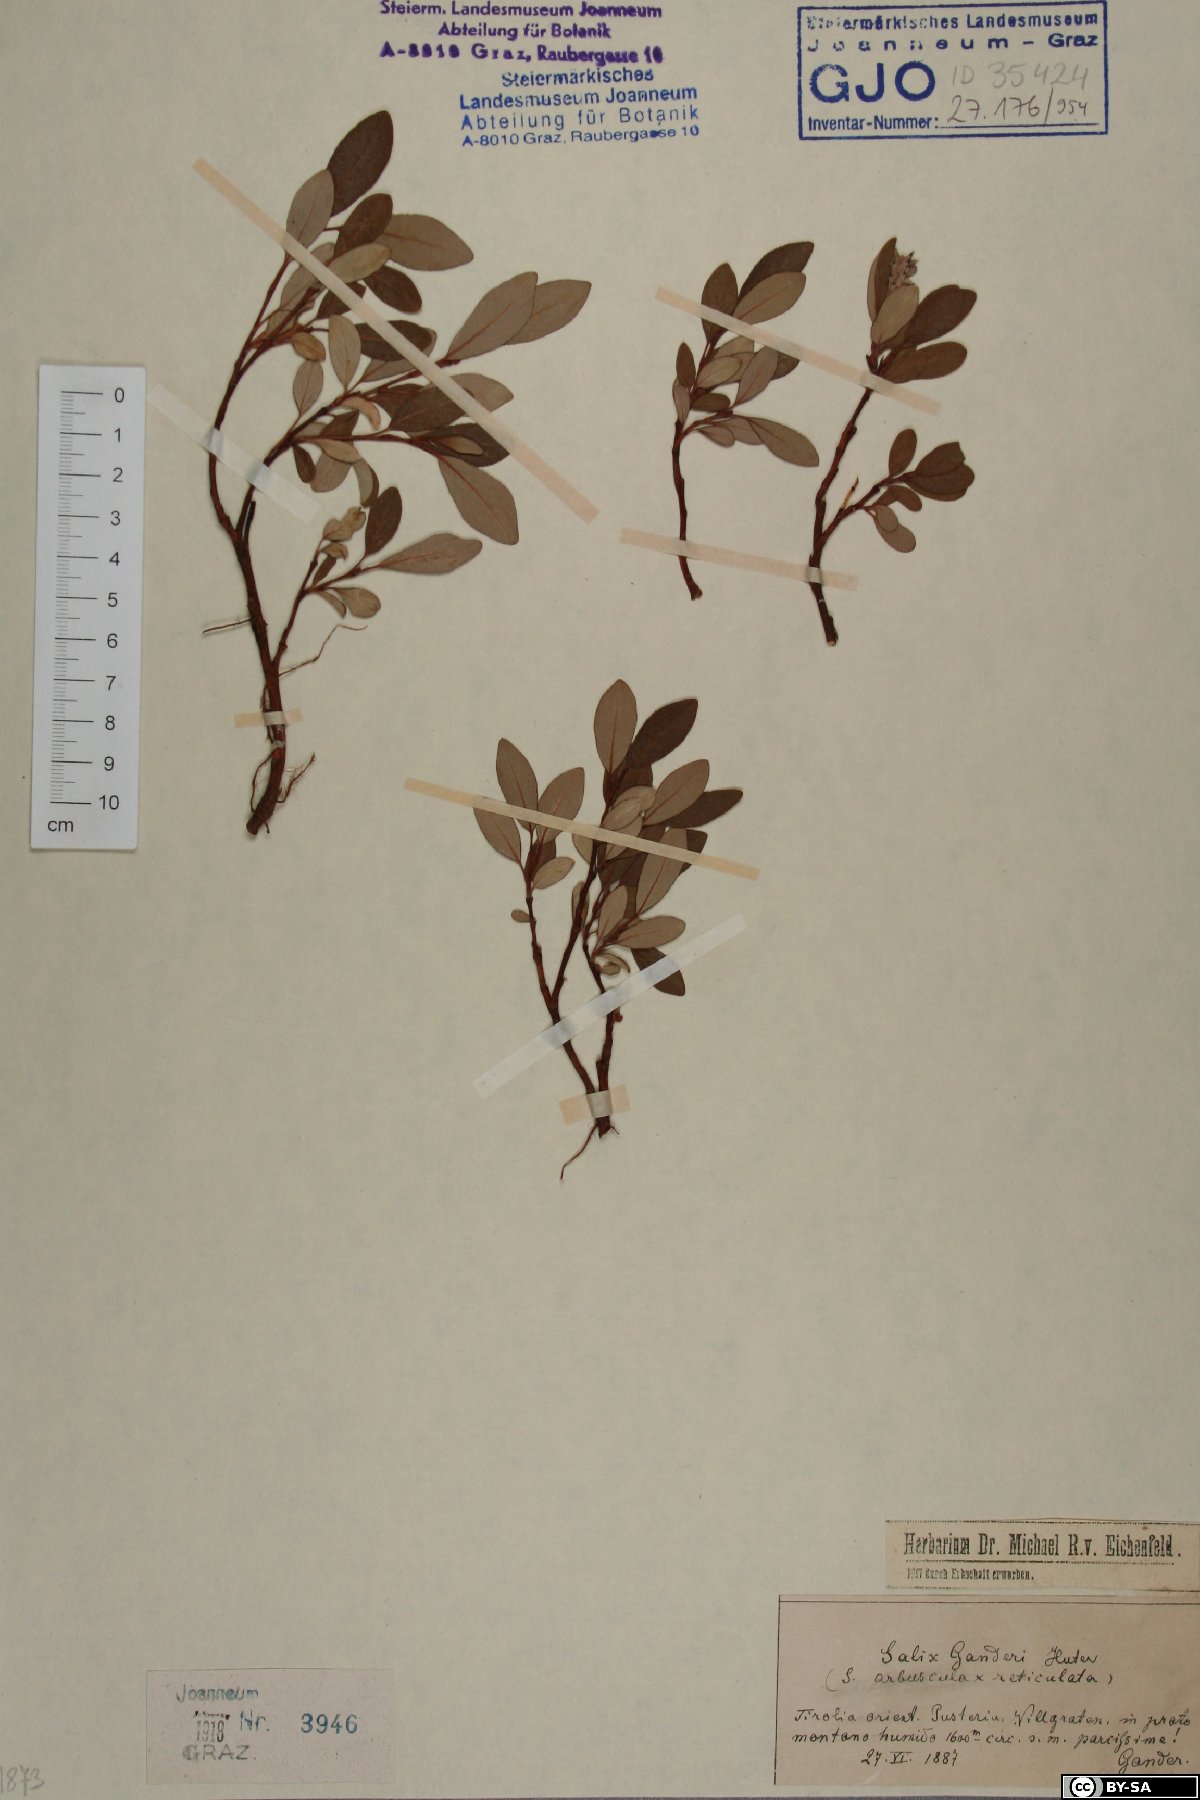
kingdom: Plantae
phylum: Tracheophyta
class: Magnoliopsida
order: Malpighiales
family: Salicaceae
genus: Salix
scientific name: Salix ganderi
